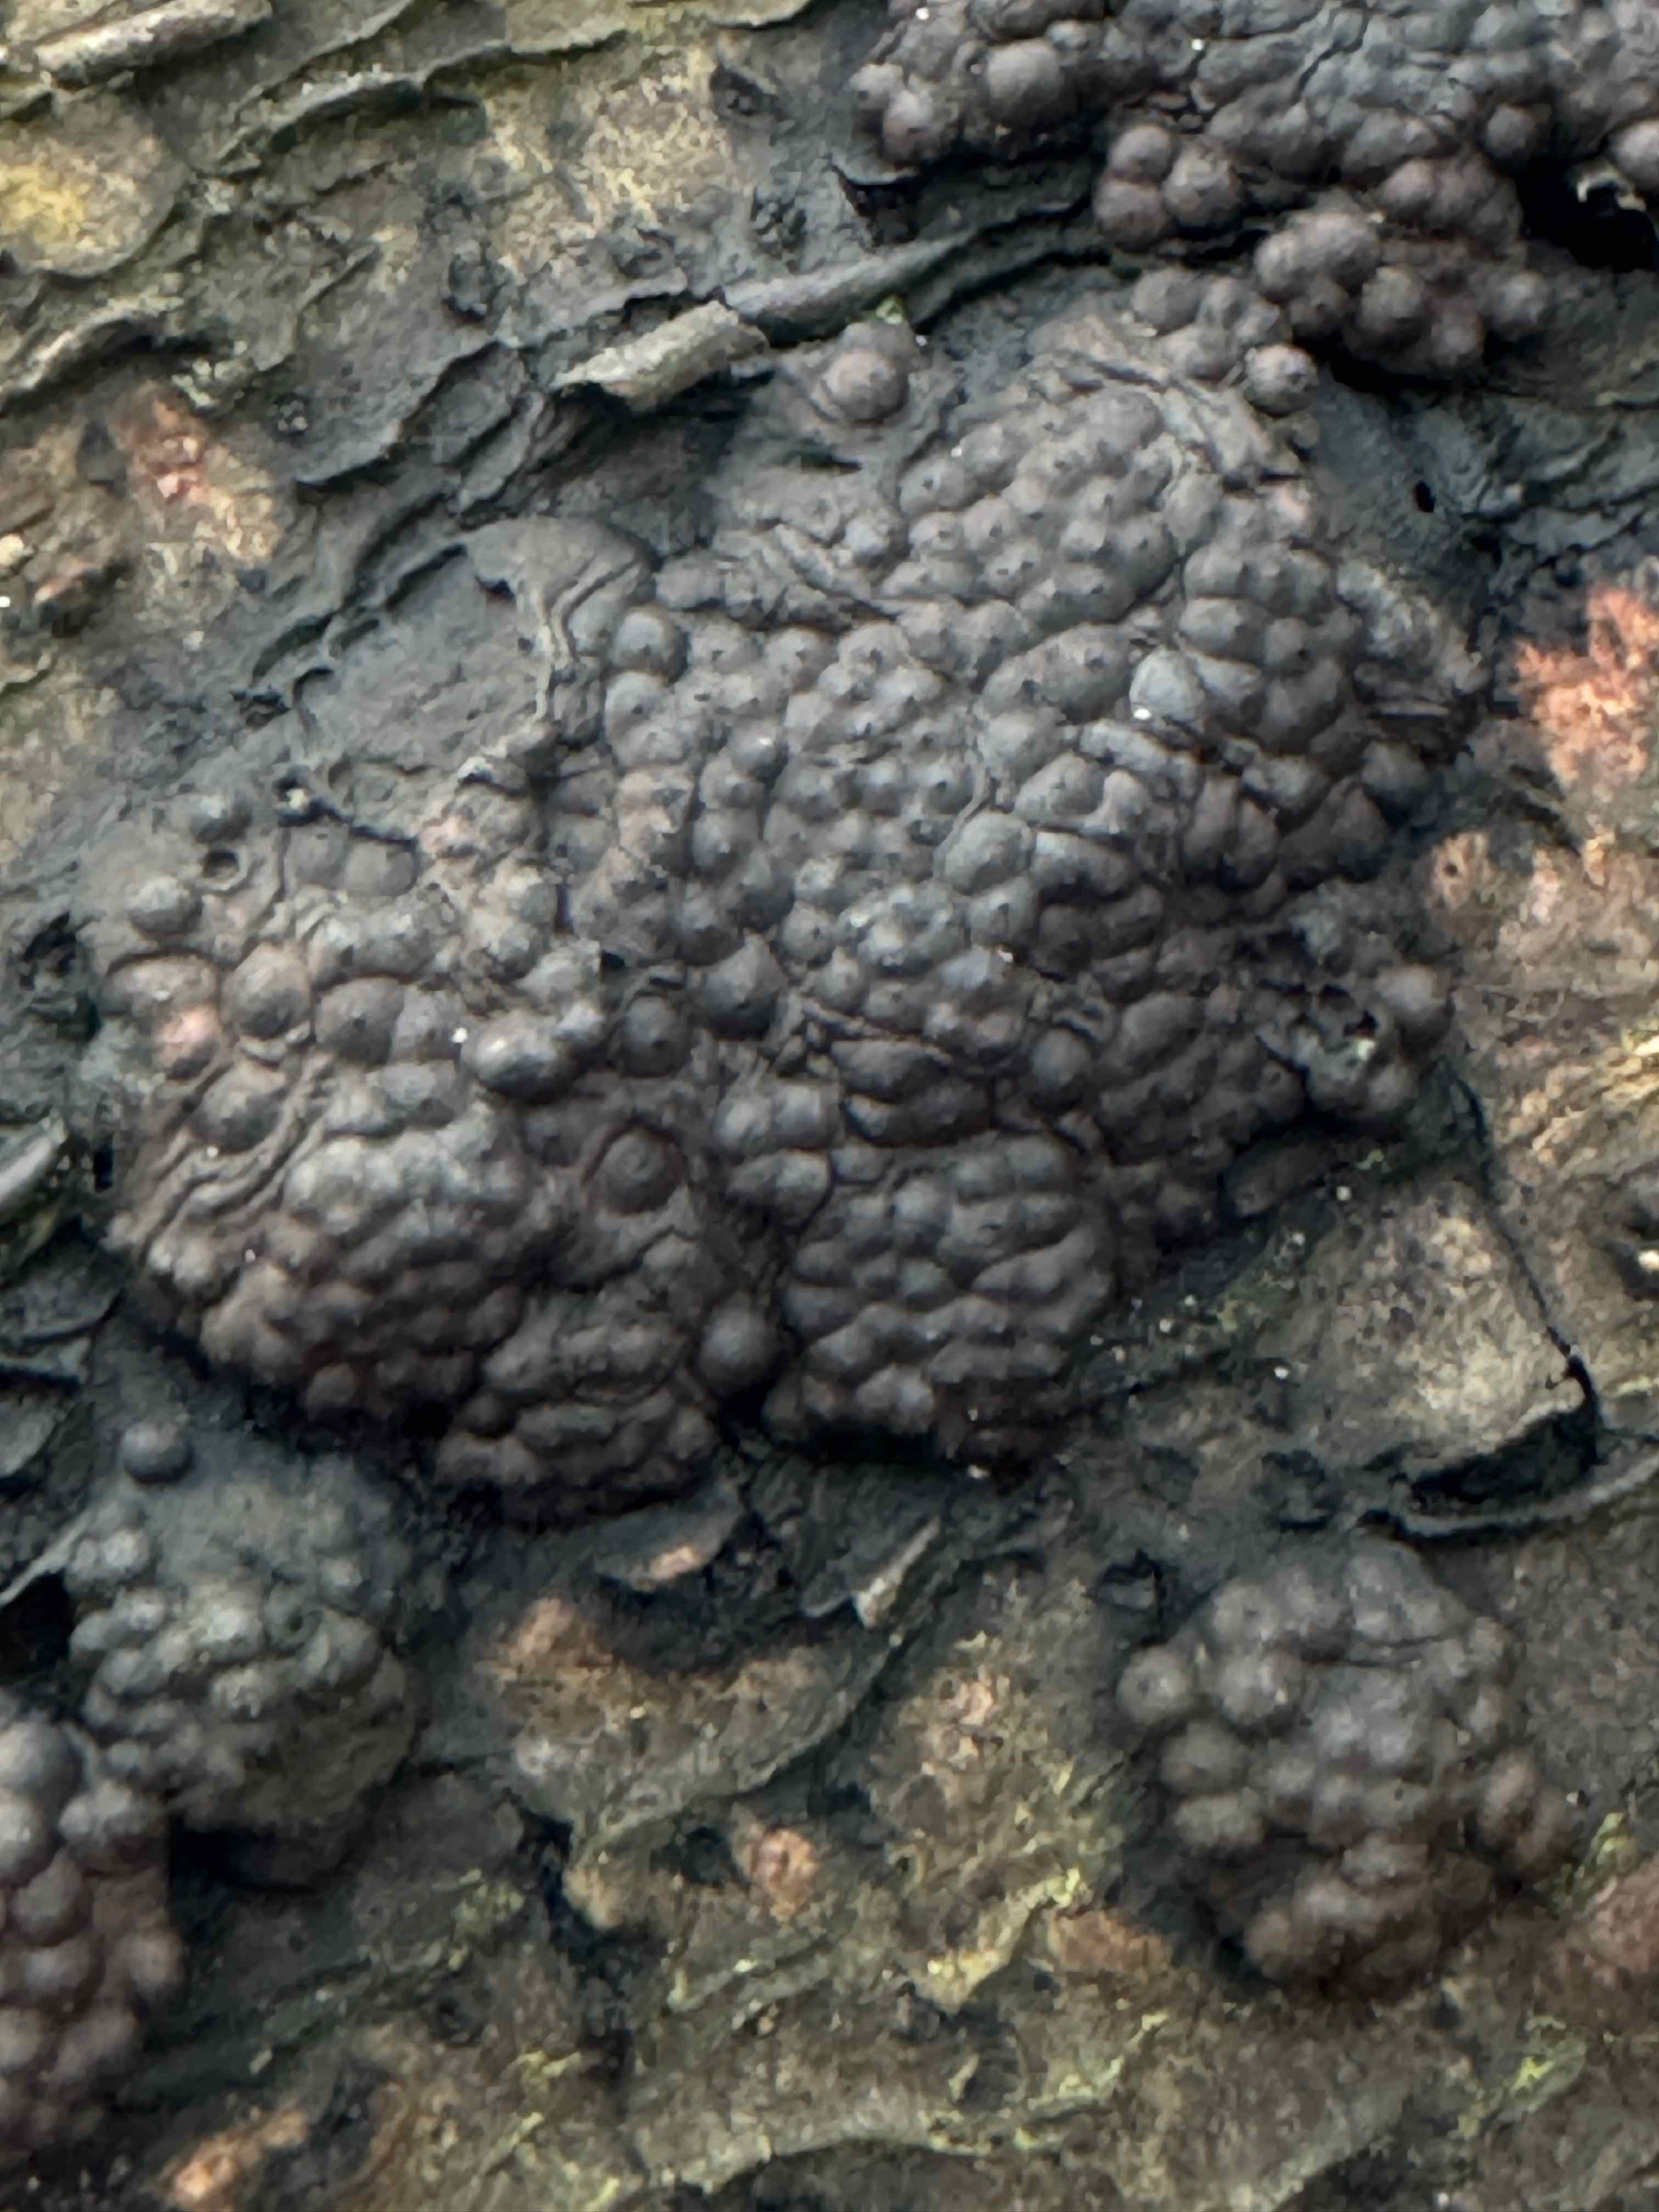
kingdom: Fungi
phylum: Ascomycota
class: Sordariomycetes
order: Xylariales
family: Hypoxylaceae
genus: Jackrogersella
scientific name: Jackrogersella multiformis
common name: foranderlig kulbær
